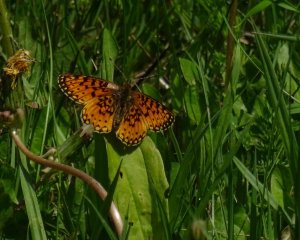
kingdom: Animalia
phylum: Arthropoda
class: Insecta
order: Lepidoptera
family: Nymphalidae
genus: Boloria
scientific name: Boloria selene
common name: Silver-bordered Fritillary
